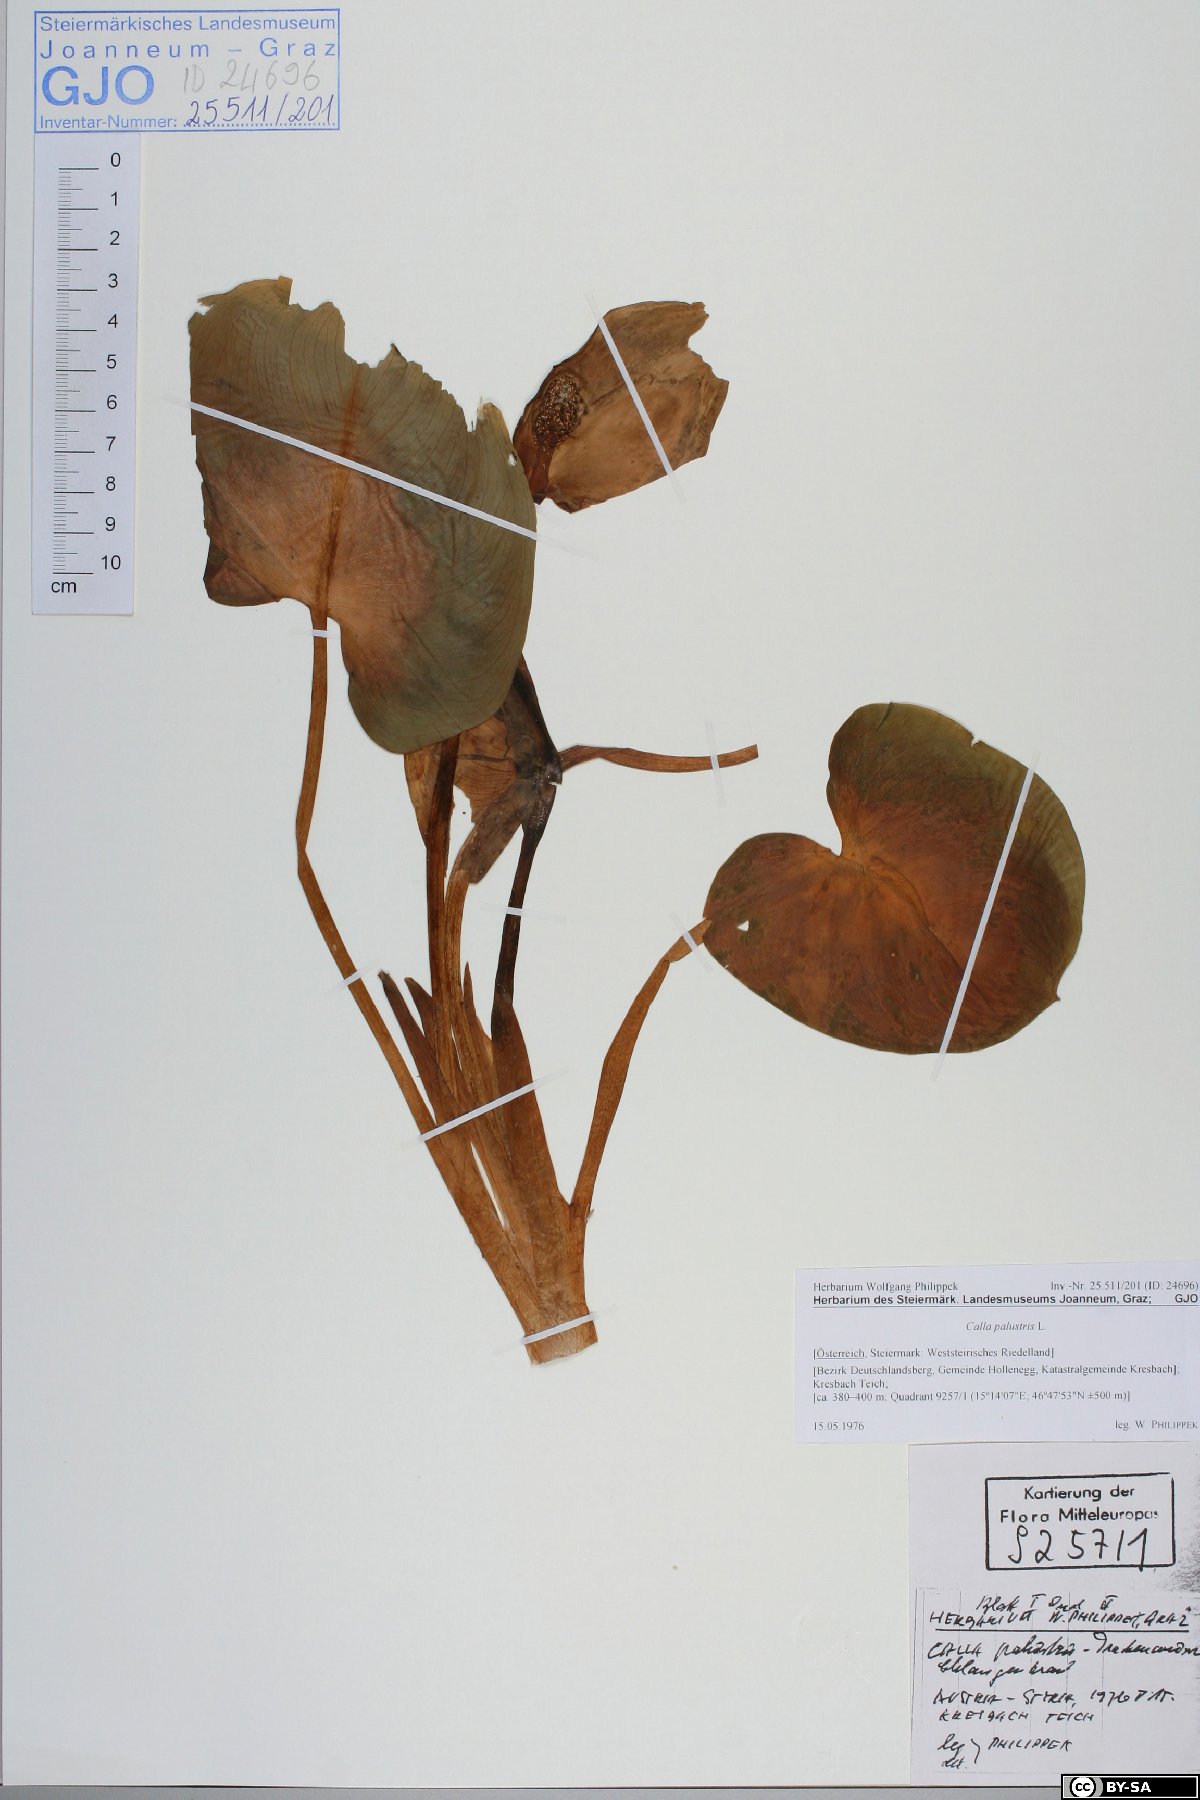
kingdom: Plantae
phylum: Tracheophyta
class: Liliopsida
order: Alismatales
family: Araceae
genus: Calla
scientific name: Calla palustris
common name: Bog arum
